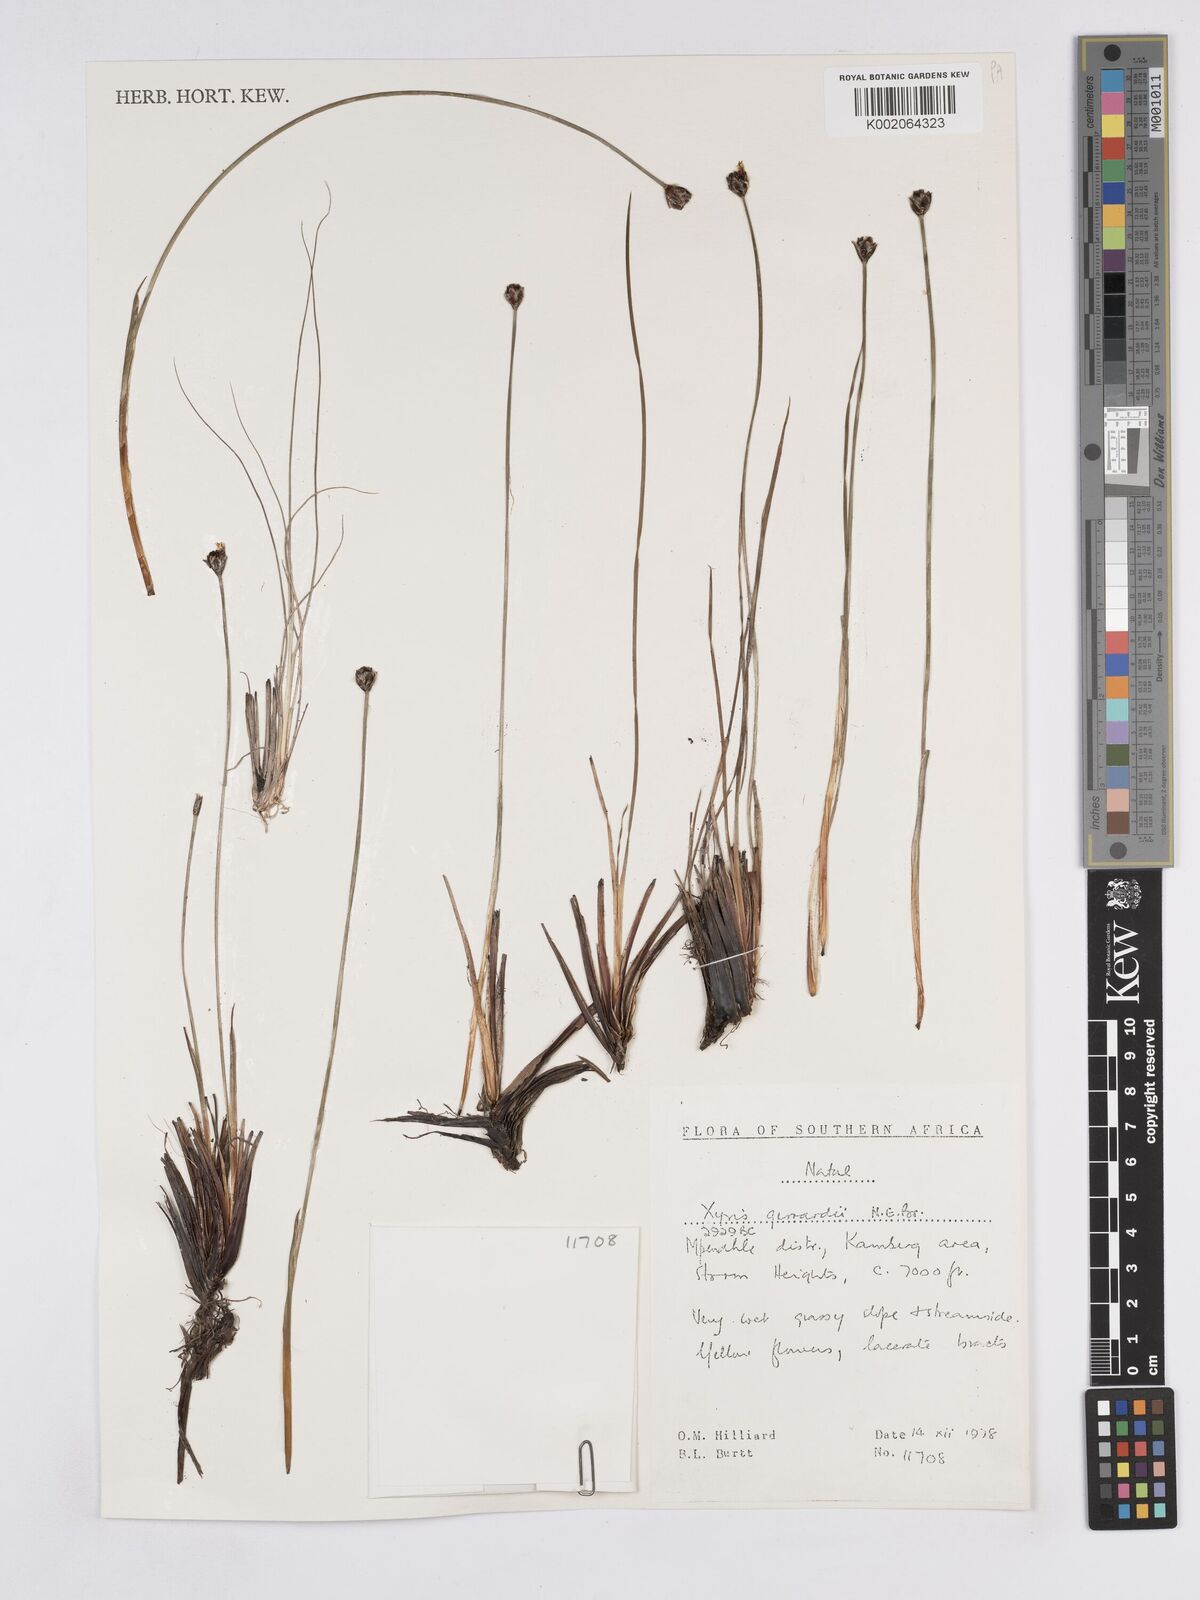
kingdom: Plantae
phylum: Tracheophyta
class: Liliopsida
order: Poales
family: Xyridaceae
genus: Xyris
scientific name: Xyris gerrardii
